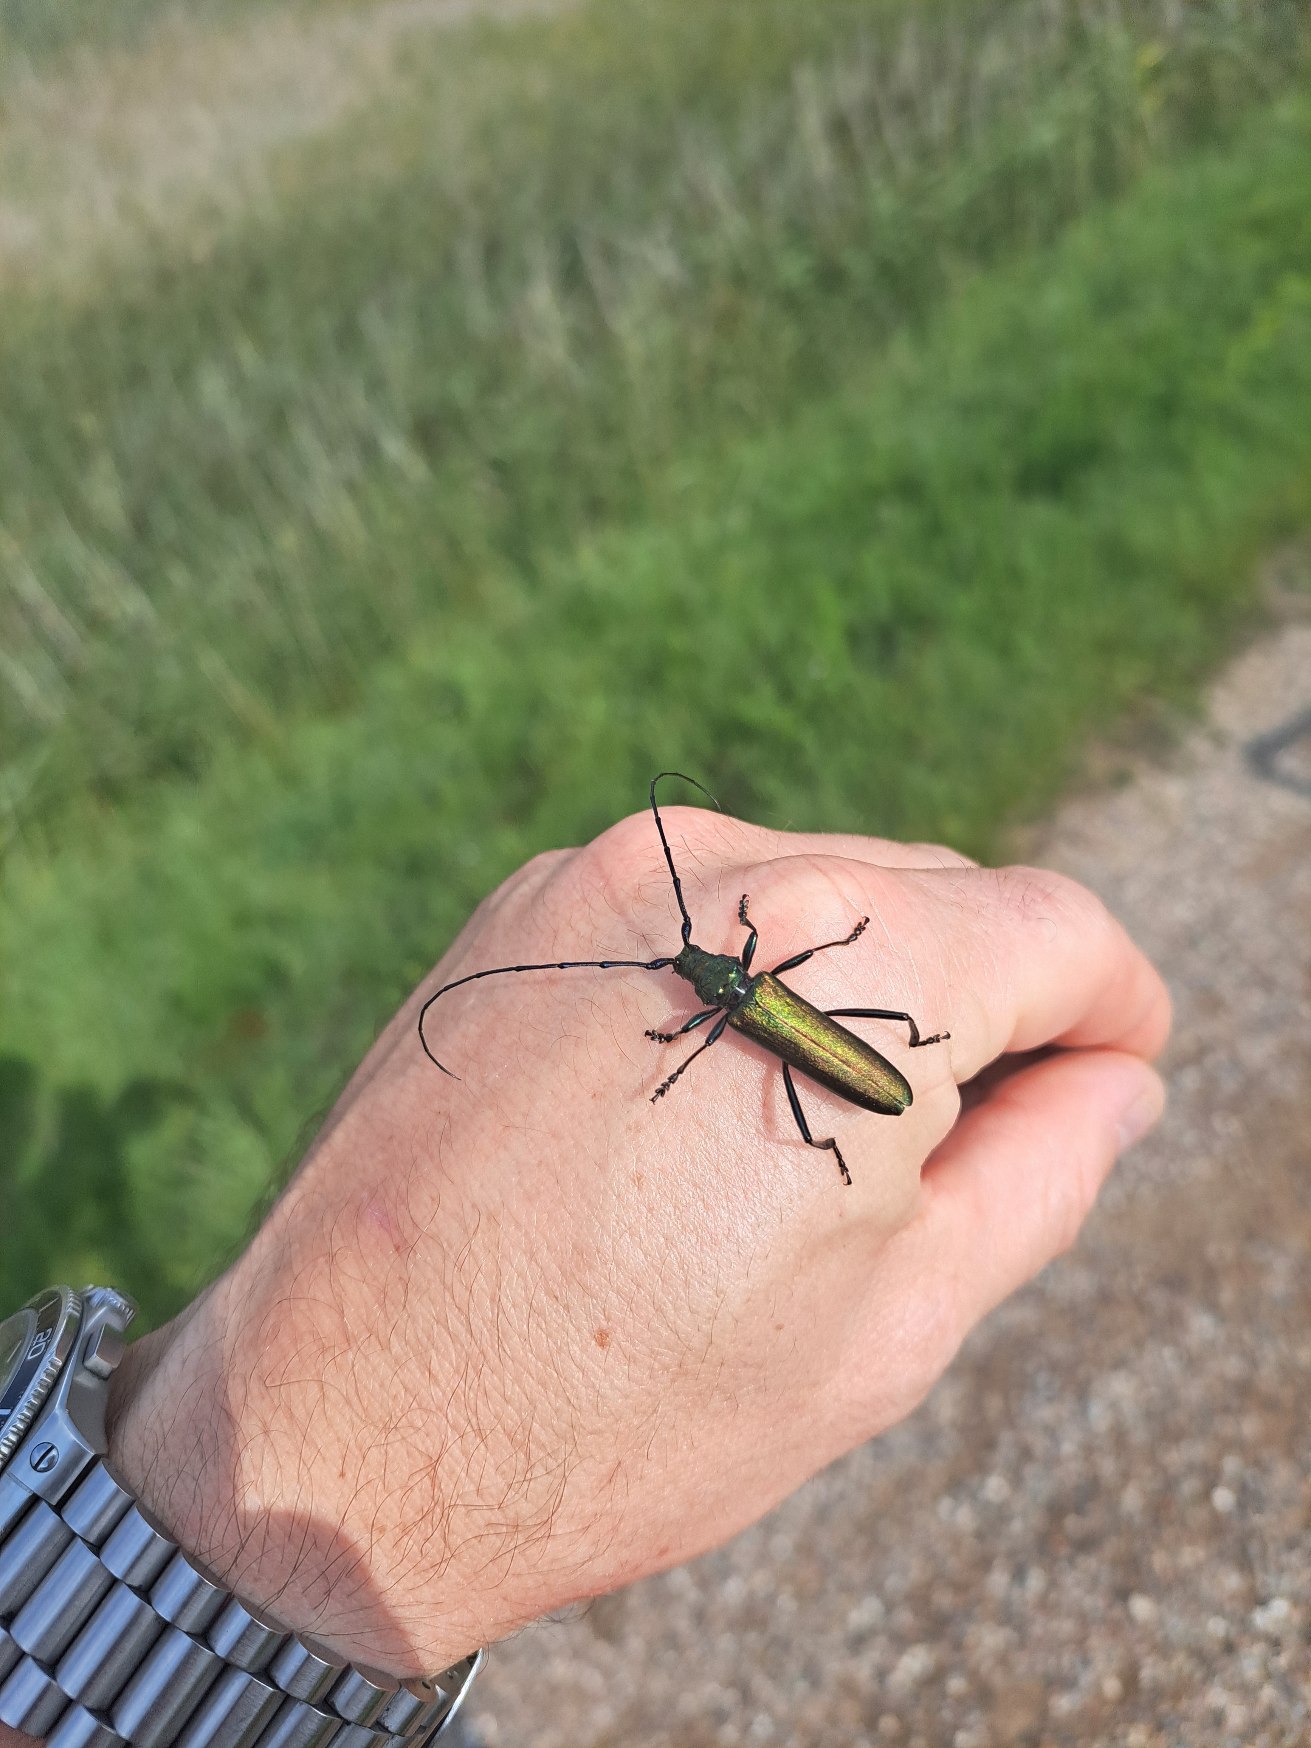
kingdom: Animalia
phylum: Arthropoda
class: Insecta
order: Coleoptera
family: Cerambycidae
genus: Aromia
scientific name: Aromia moschata
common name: Moskusbuk
